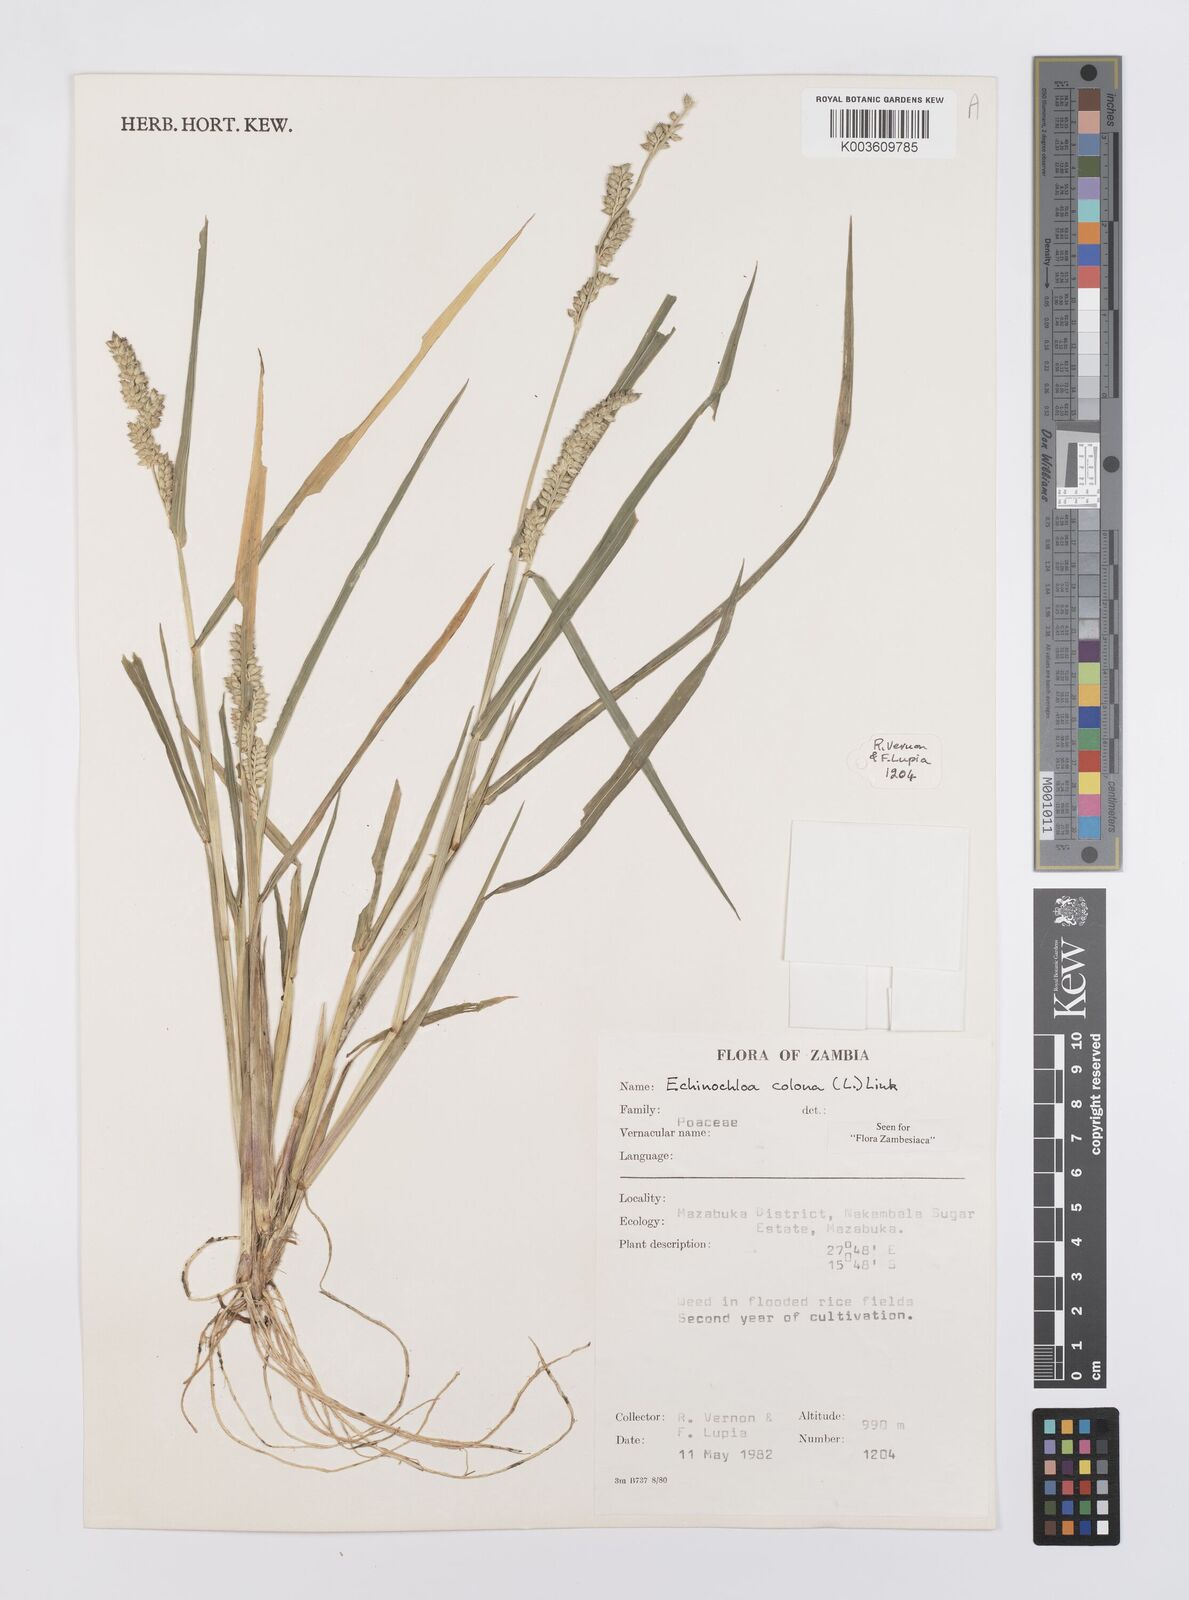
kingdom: Plantae
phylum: Tracheophyta
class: Liliopsida
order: Poales
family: Poaceae
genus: Echinochloa
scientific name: Echinochloa colonum
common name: Jungle rice
